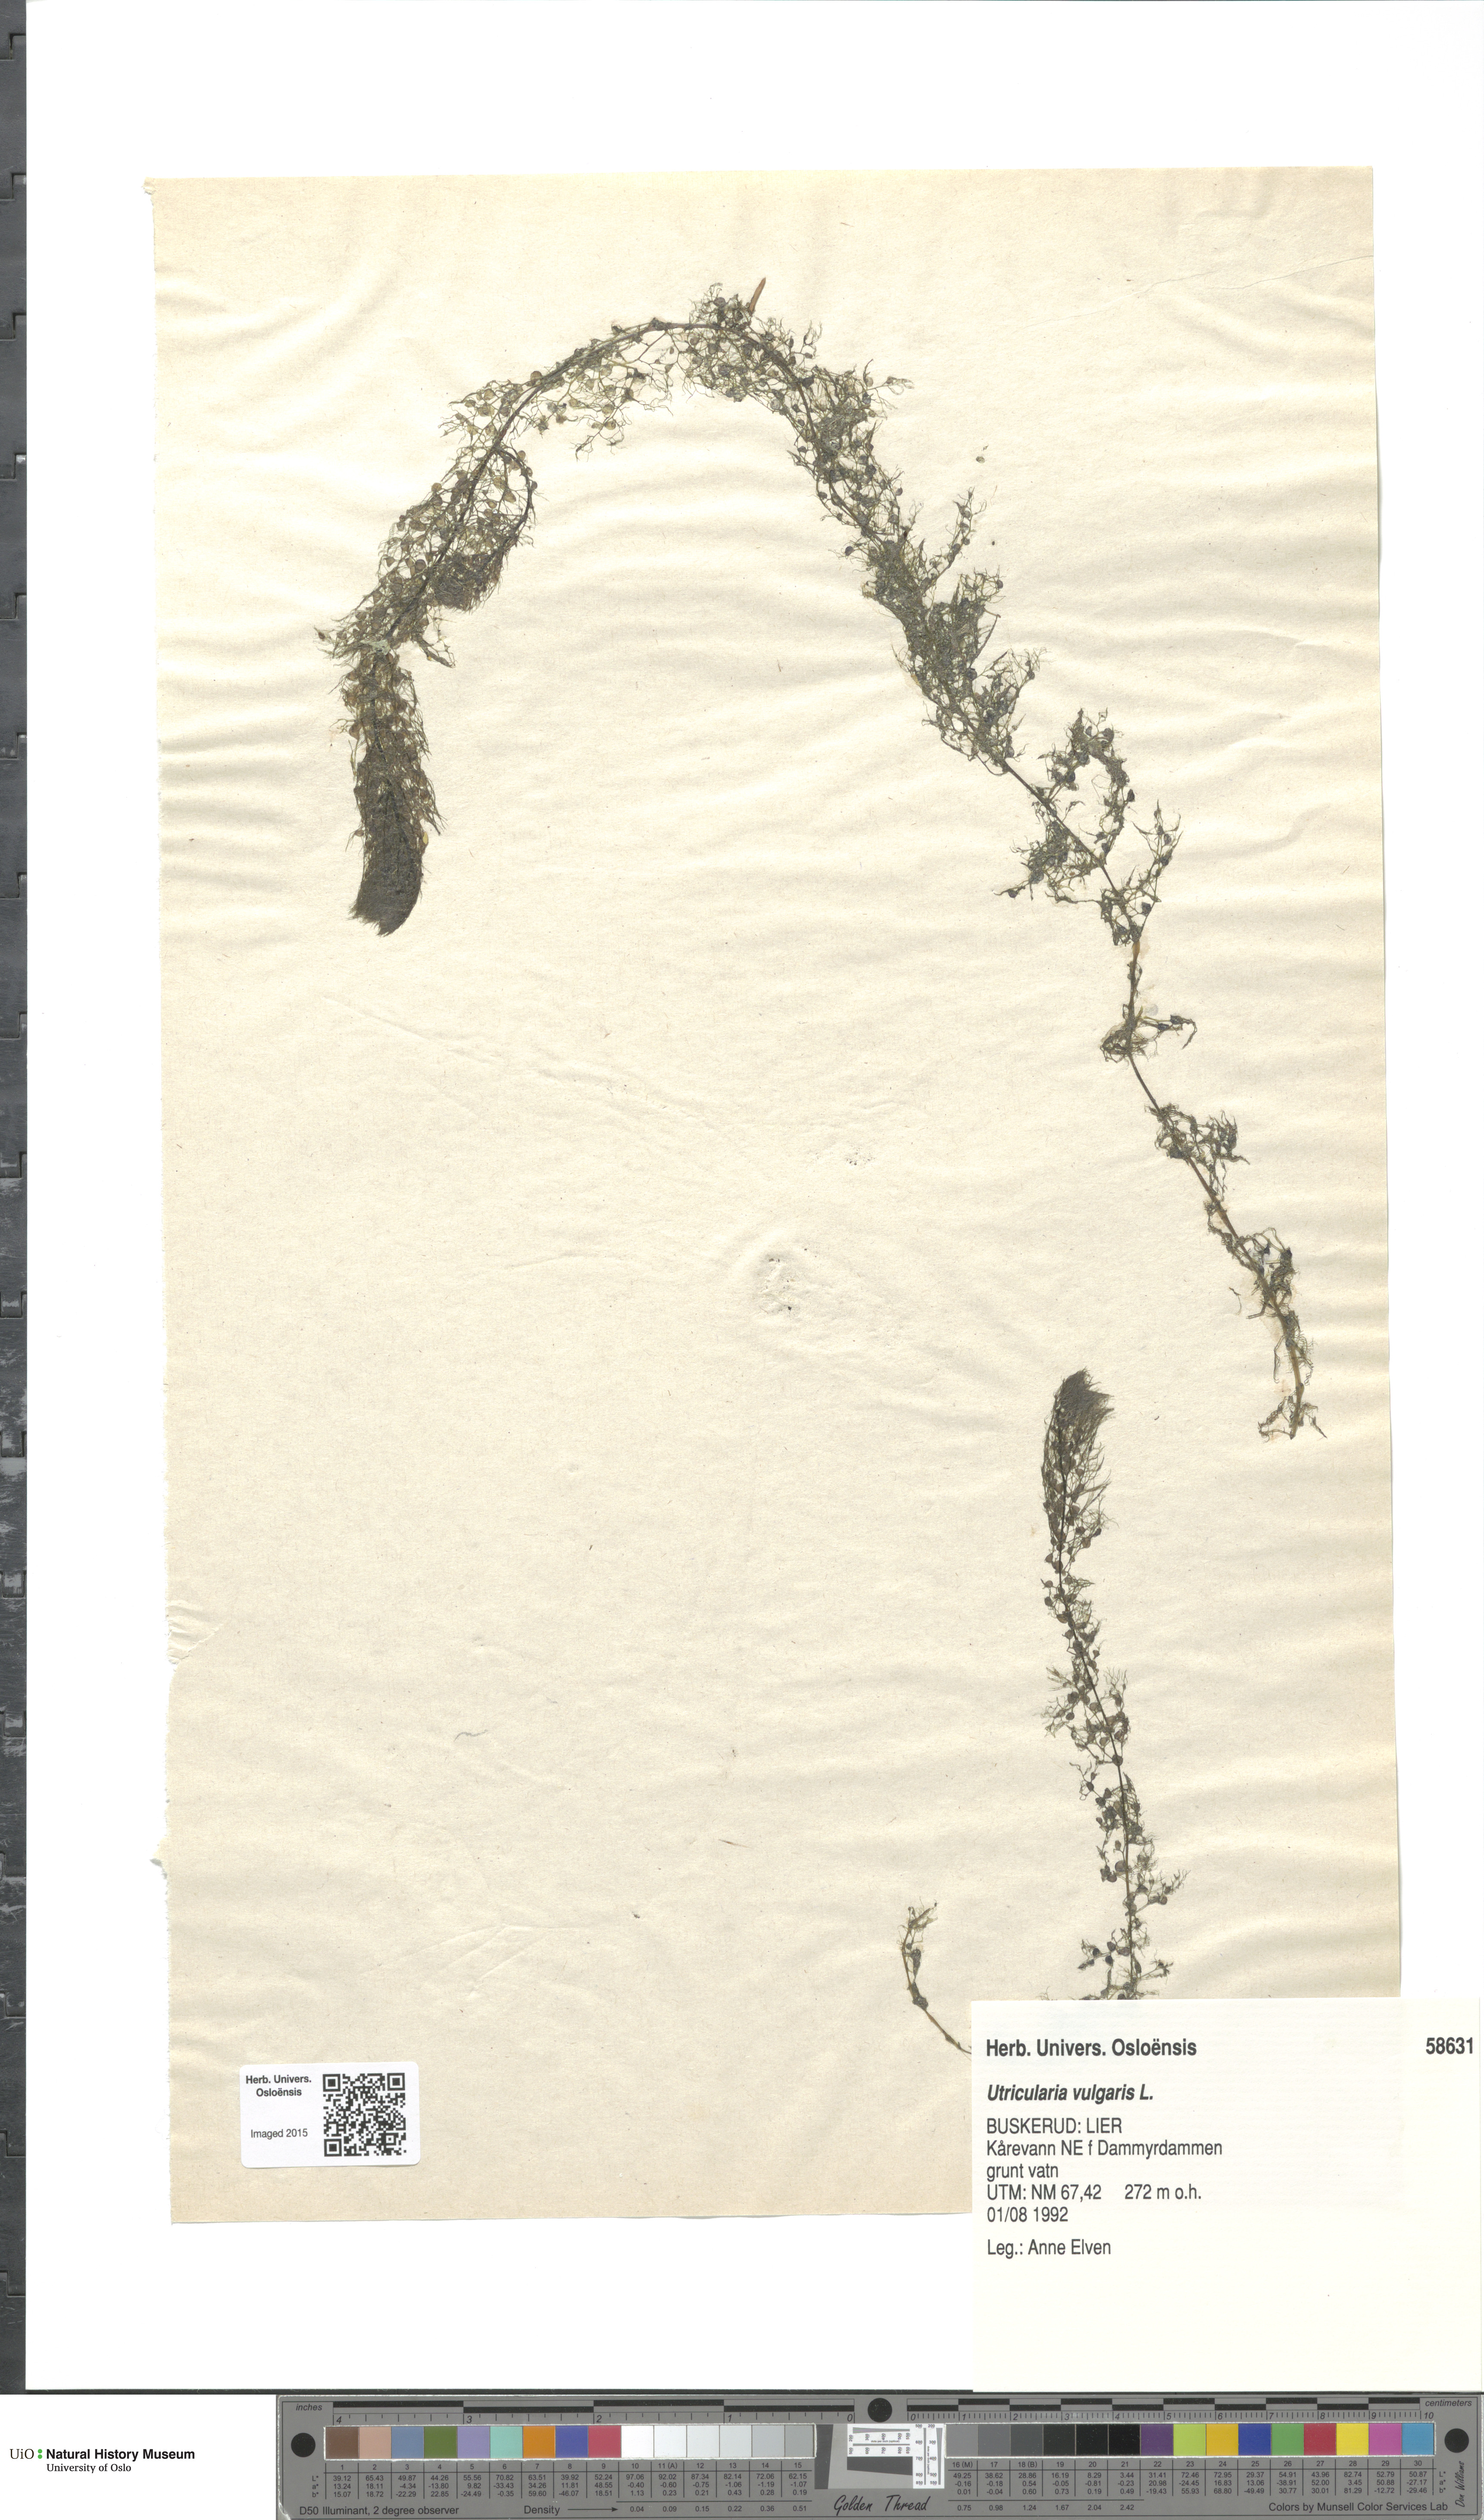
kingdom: Plantae
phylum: Tracheophyta
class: Magnoliopsida
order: Lamiales
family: Lentibulariaceae
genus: Utricularia
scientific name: Utricularia vulgaris
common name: Greater bladderwort
